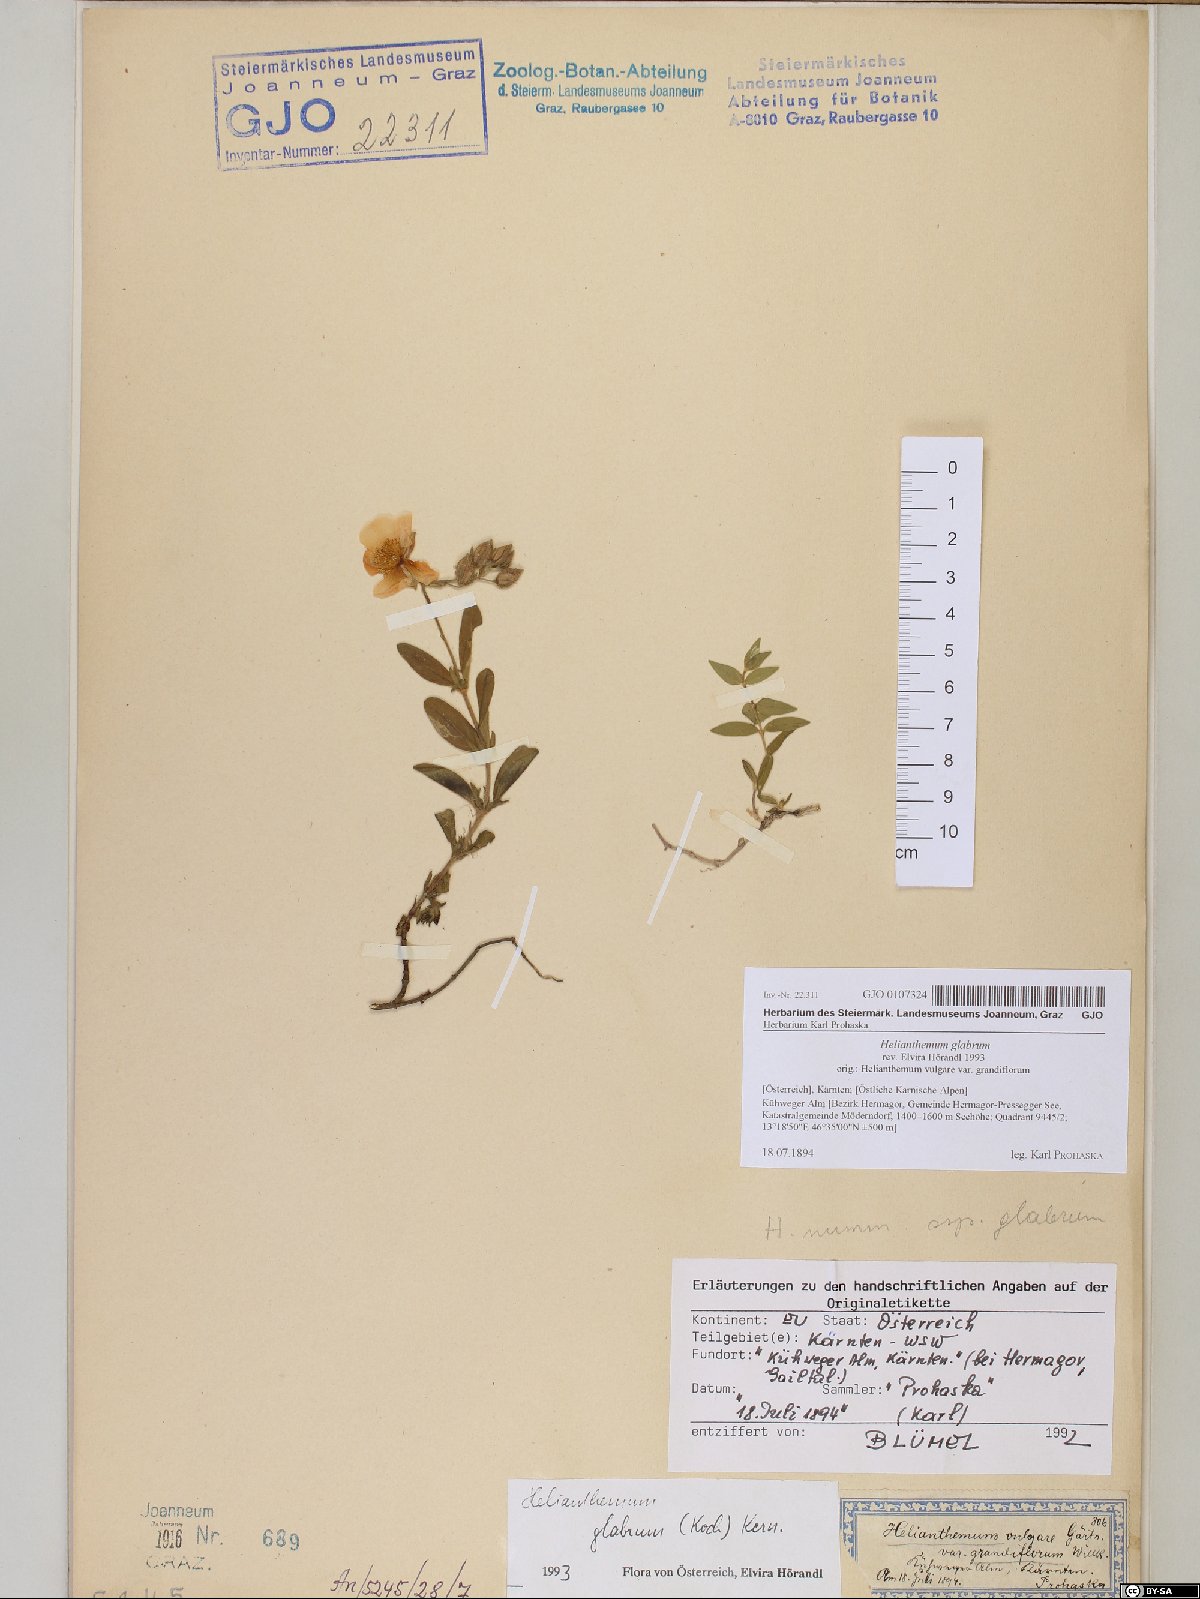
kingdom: Plantae
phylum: Tracheophyta
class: Magnoliopsida
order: Malvales
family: Cistaceae
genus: Helianthemum
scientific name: Helianthemum nummularium
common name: Common rock-rose
